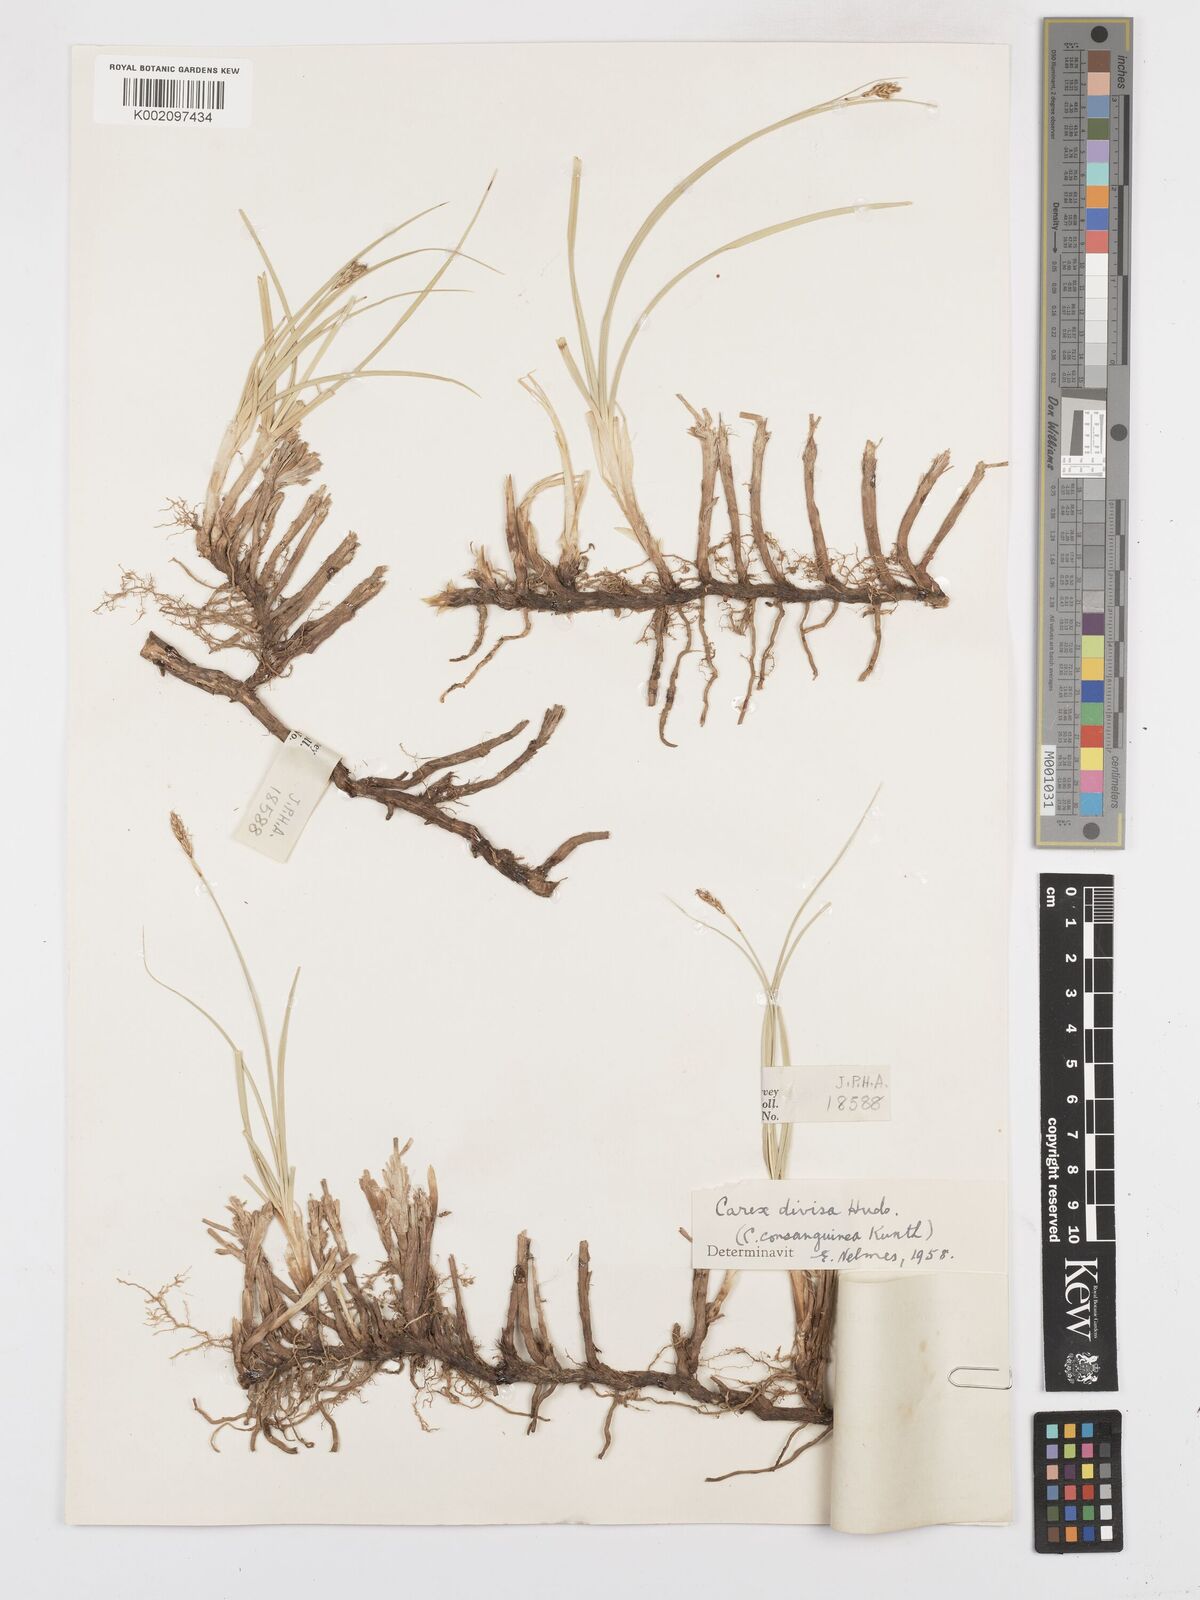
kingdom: Plantae
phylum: Tracheophyta
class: Liliopsida
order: Poales
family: Cyperaceae
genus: Carex
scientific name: Carex divisa
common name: Divided sedge
